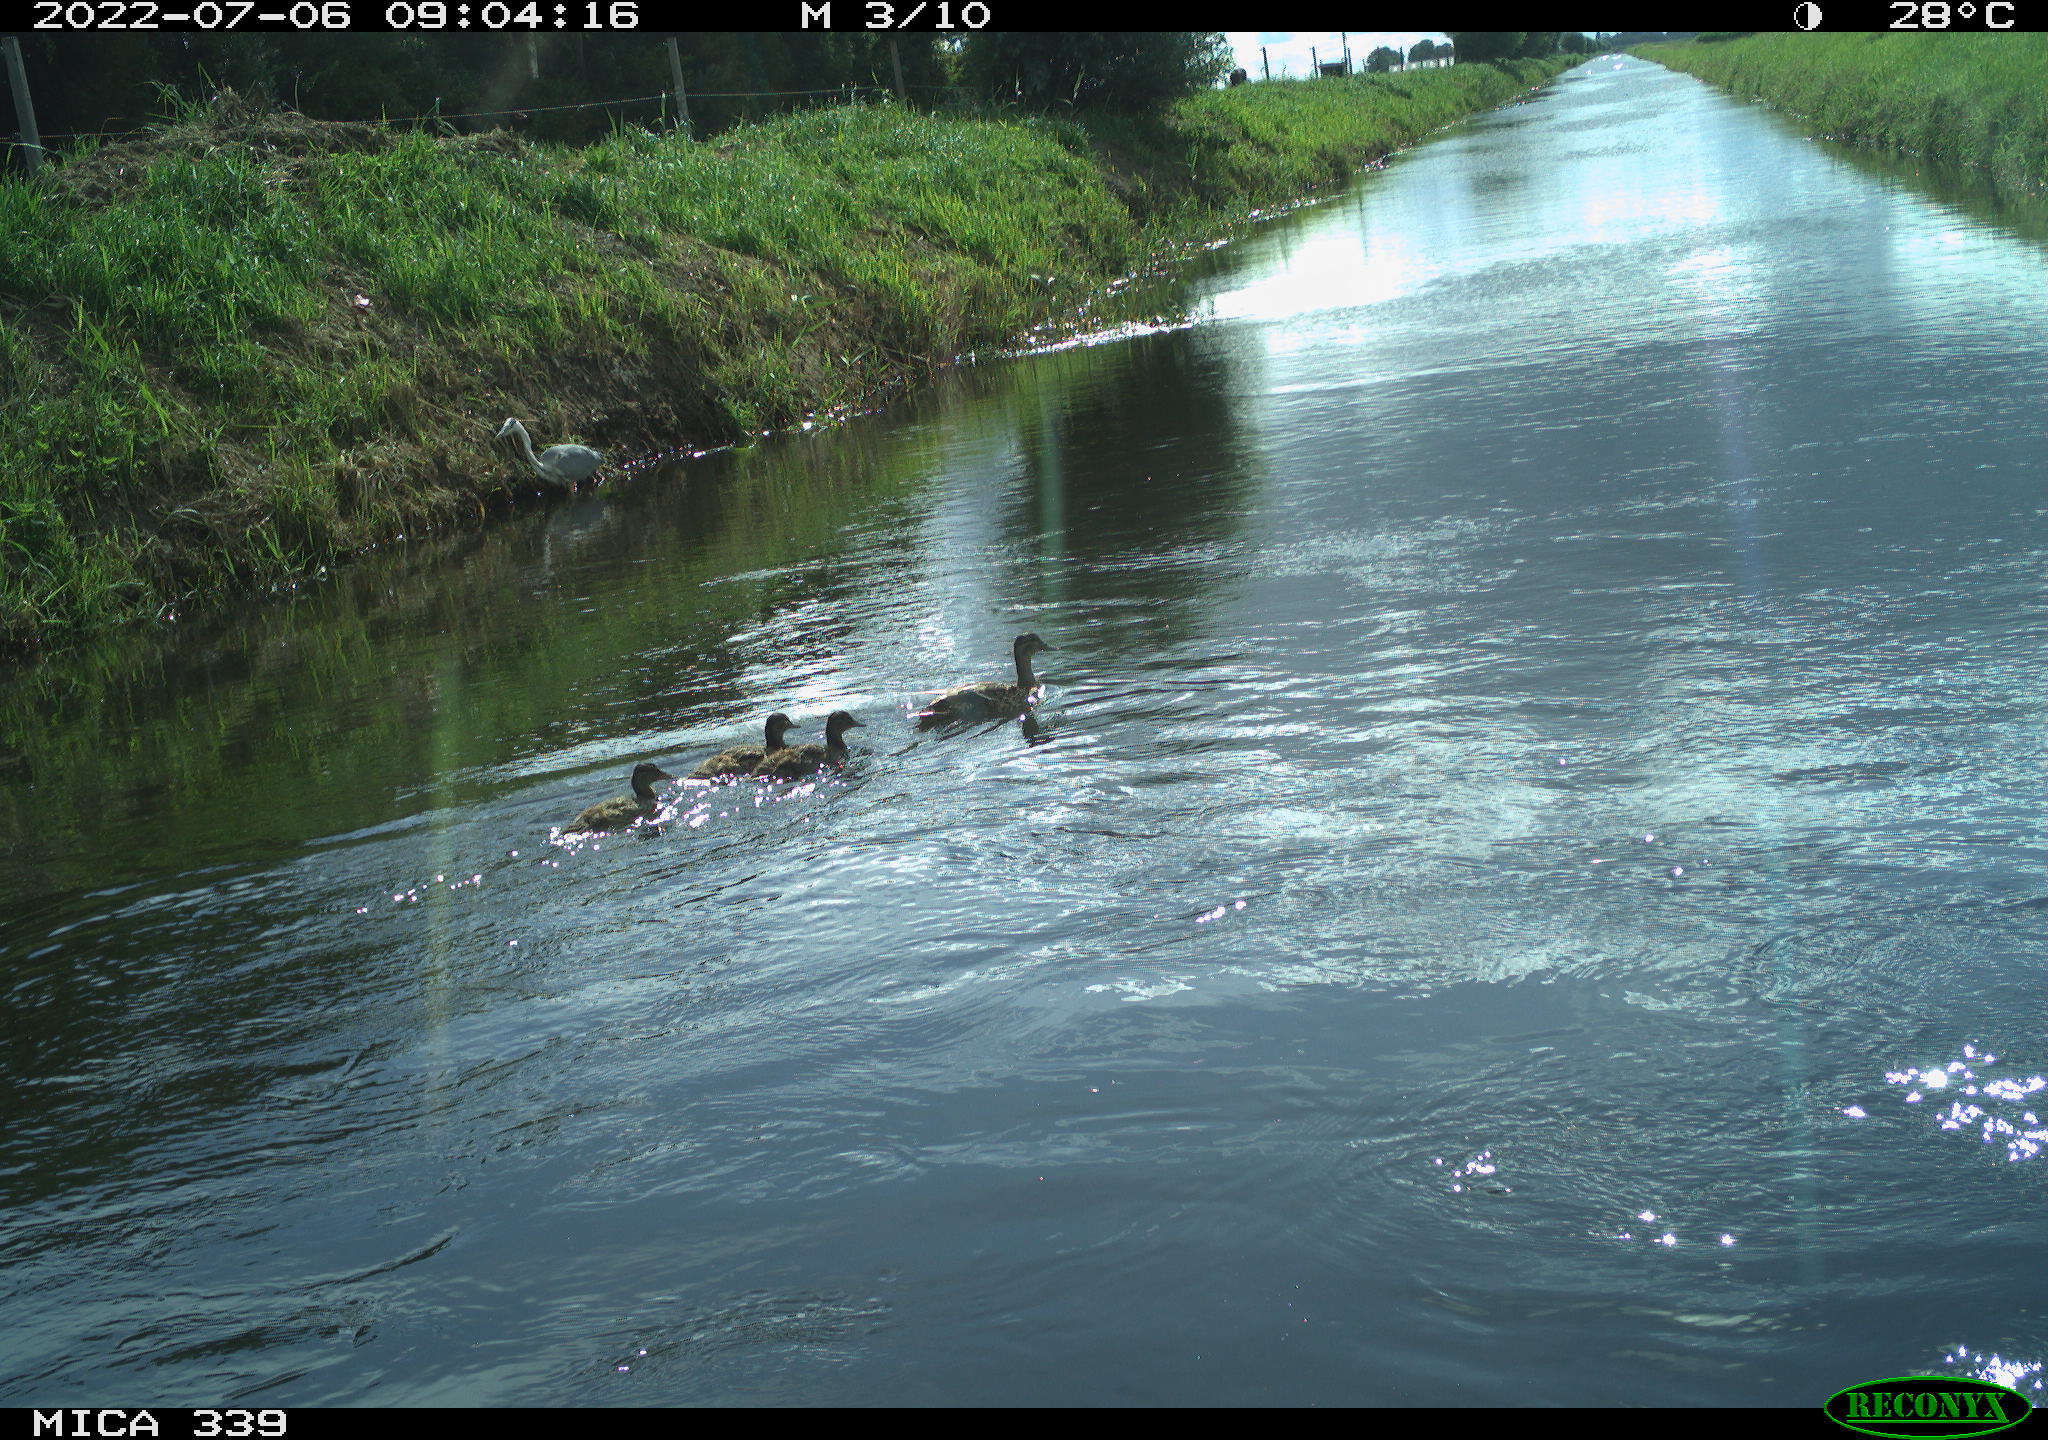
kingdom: Animalia
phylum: Chordata
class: Aves
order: Pelecaniformes
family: Ardeidae
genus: Ardea
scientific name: Ardea cinerea
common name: Grey heron
